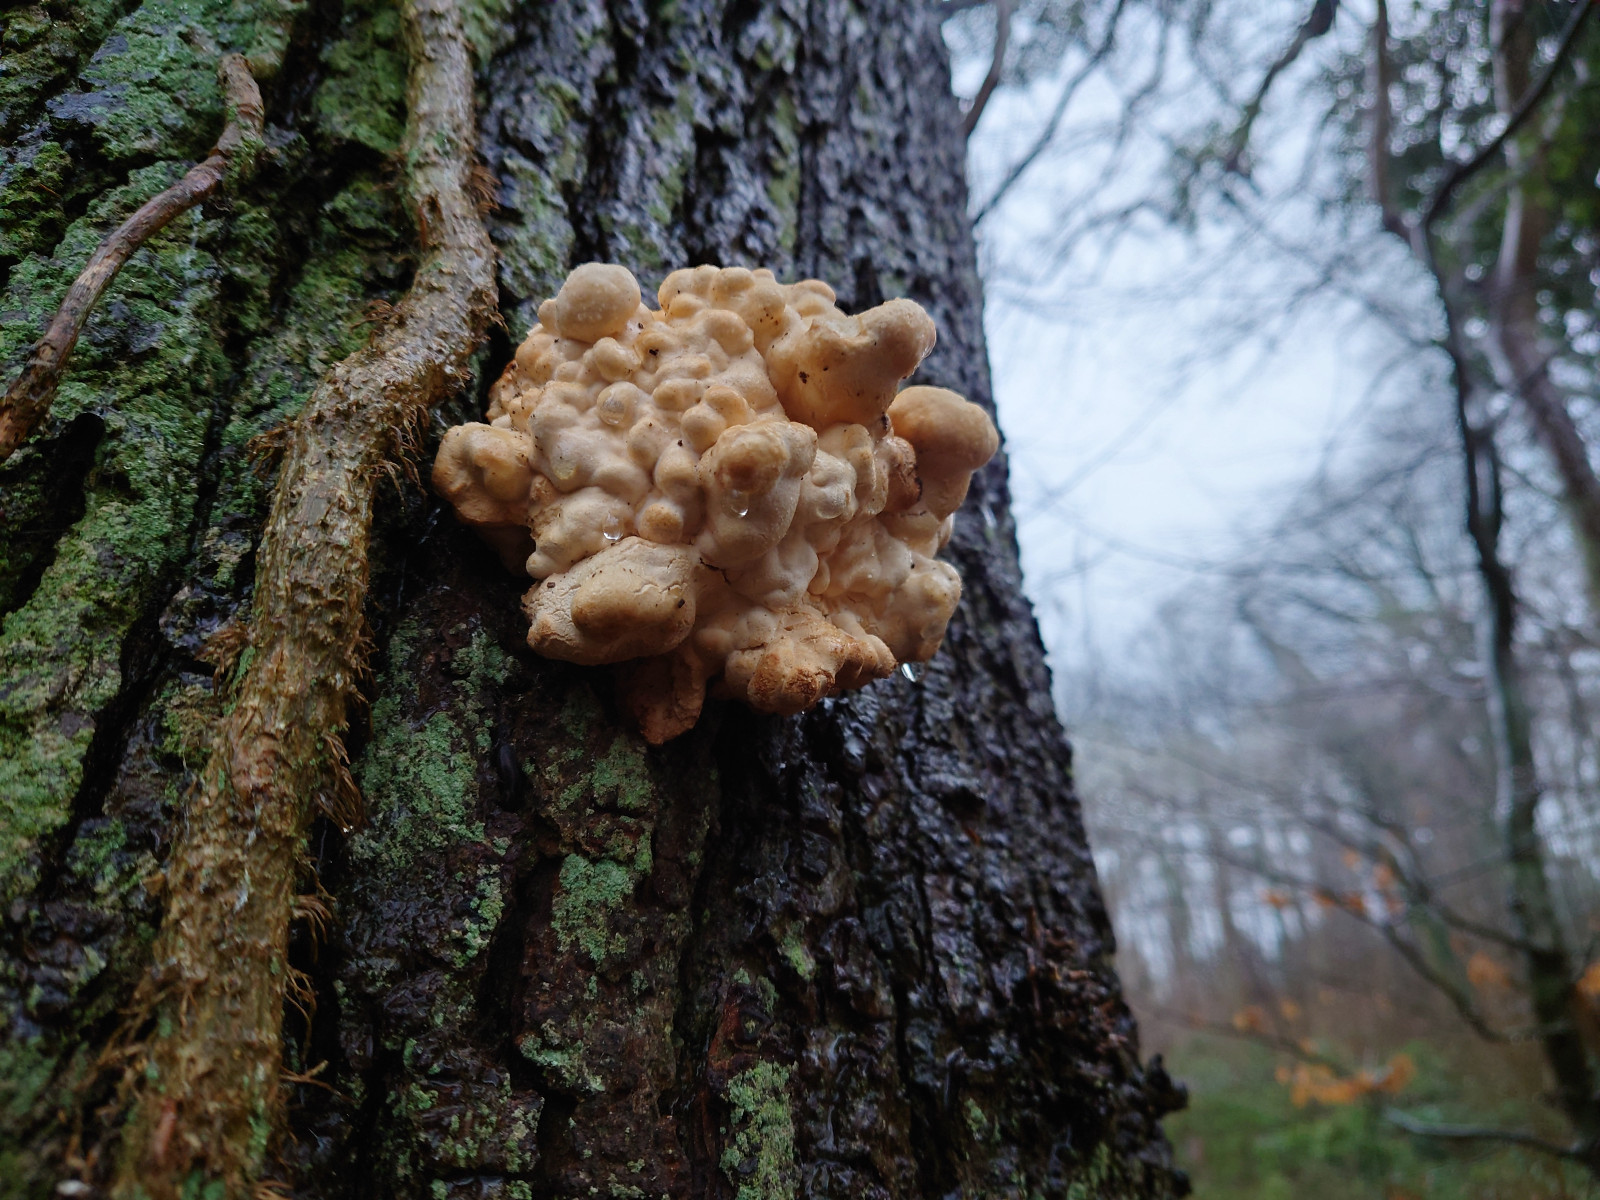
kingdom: Fungi
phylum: Basidiomycota
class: Agaricomycetes
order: Polyporales
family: Laetiporaceae
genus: Laetiporus
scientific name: Laetiporus sulphureus
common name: svovlporesvamp
